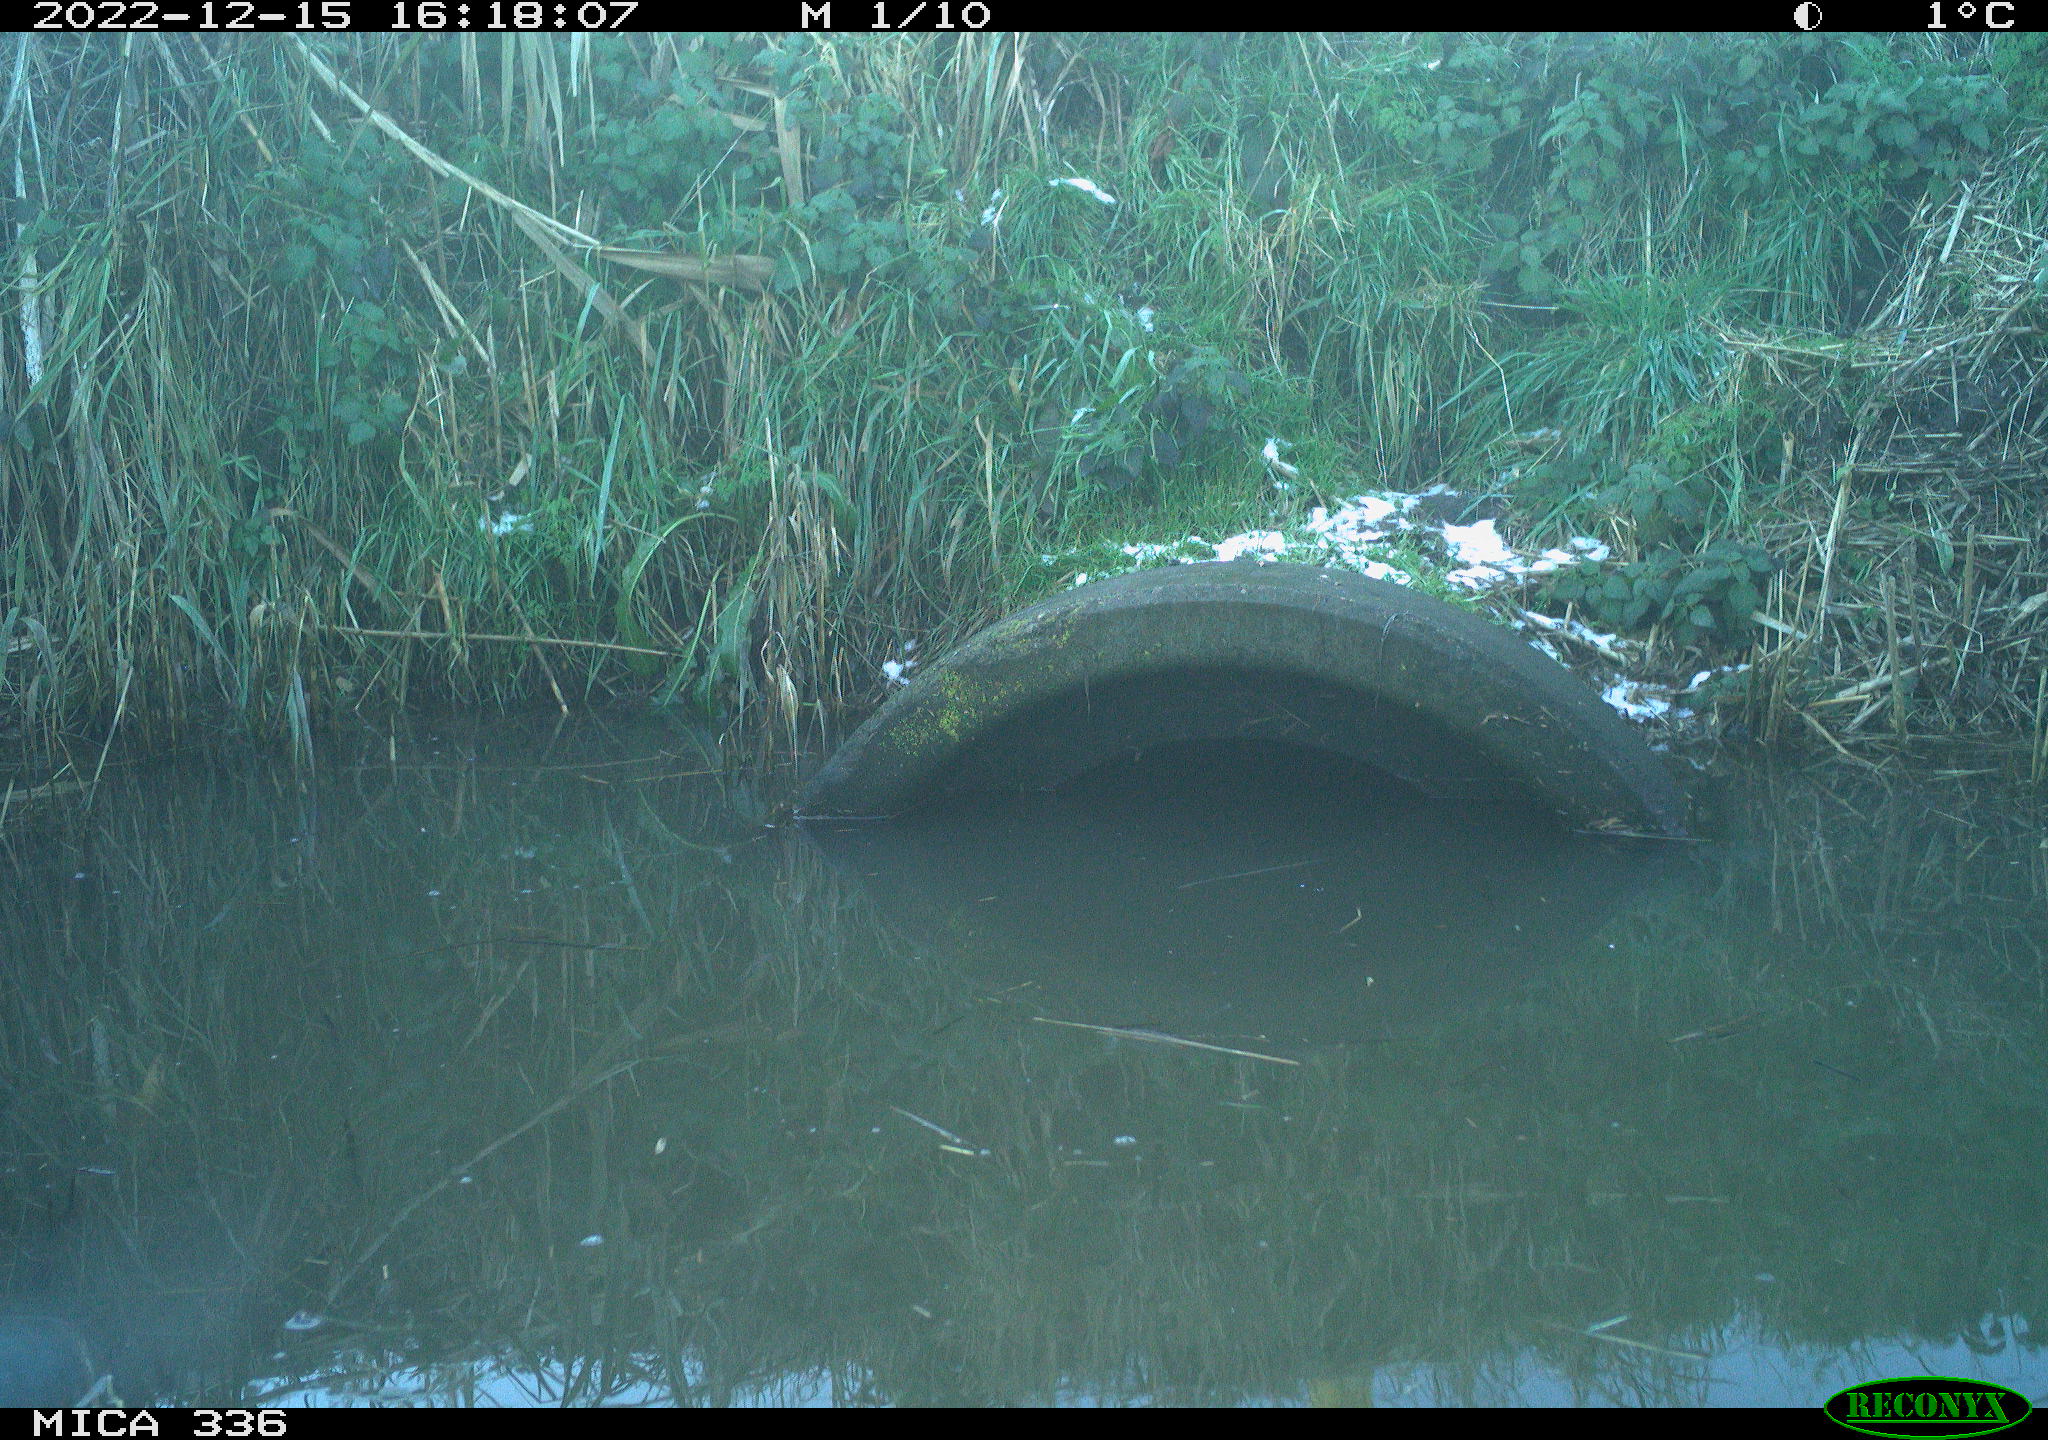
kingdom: Animalia
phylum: Chordata
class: Aves
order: Coraciiformes
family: Alcedinidae
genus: Alcedo
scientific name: Alcedo atthis
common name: Common kingfisher
